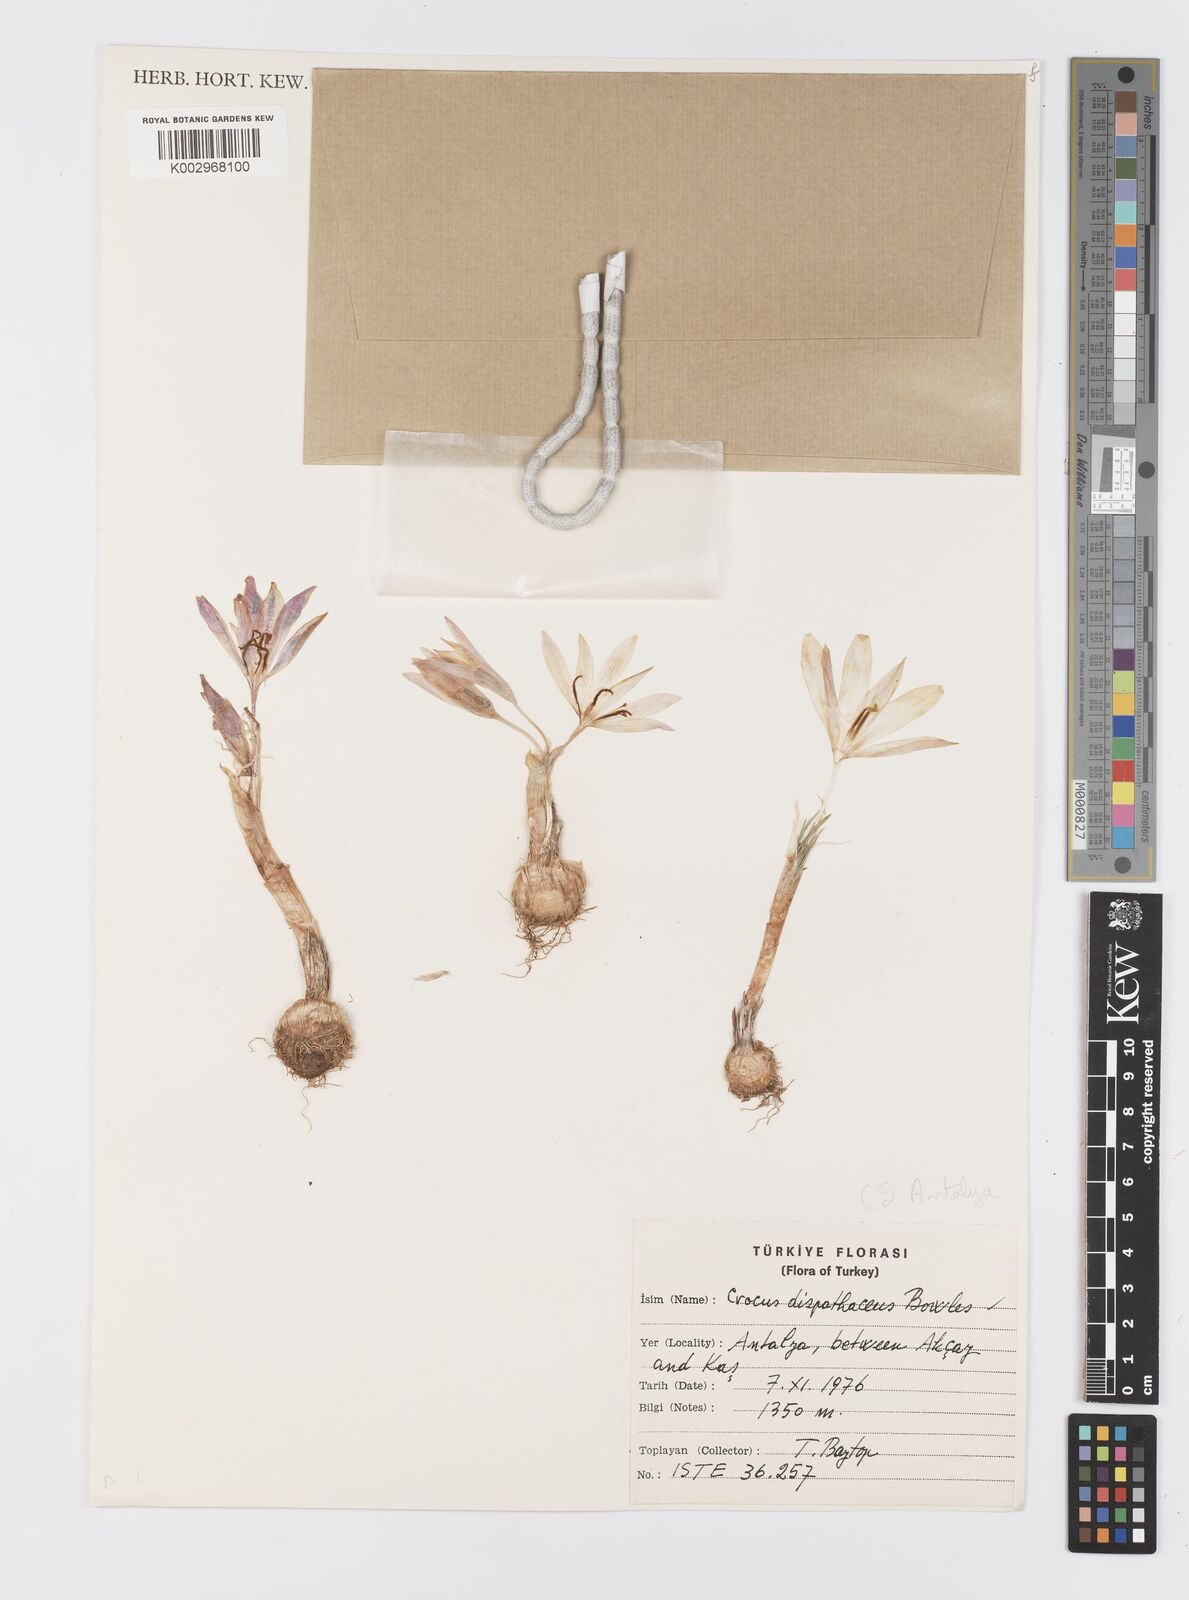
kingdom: Plantae
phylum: Tracheophyta
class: Liliopsida
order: Asparagales
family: Iridaceae
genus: Crocus
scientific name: Crocus
